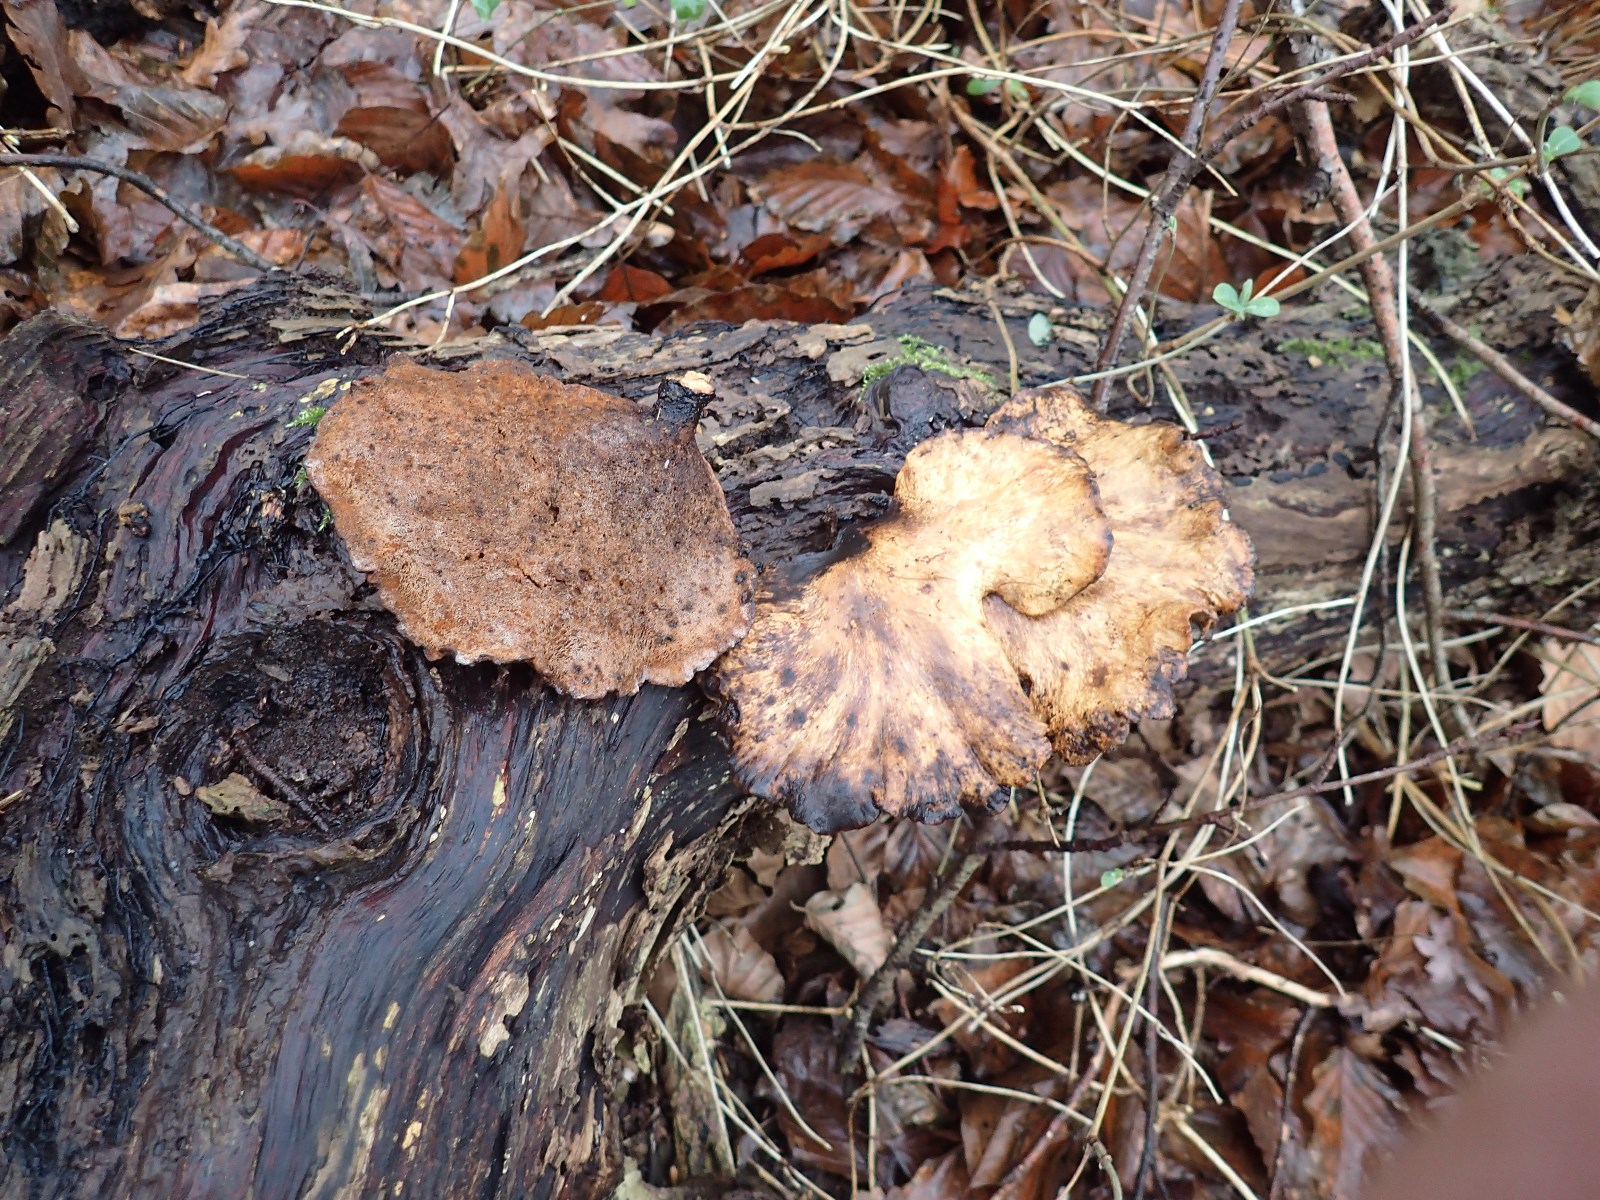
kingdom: Fungi
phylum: Basidiomycota
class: Agaricomycetes
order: Polyporales
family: Polyporaceae
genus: Cerioporus
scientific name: Cerioporus varius
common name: foranderlig stilkporesvamp
